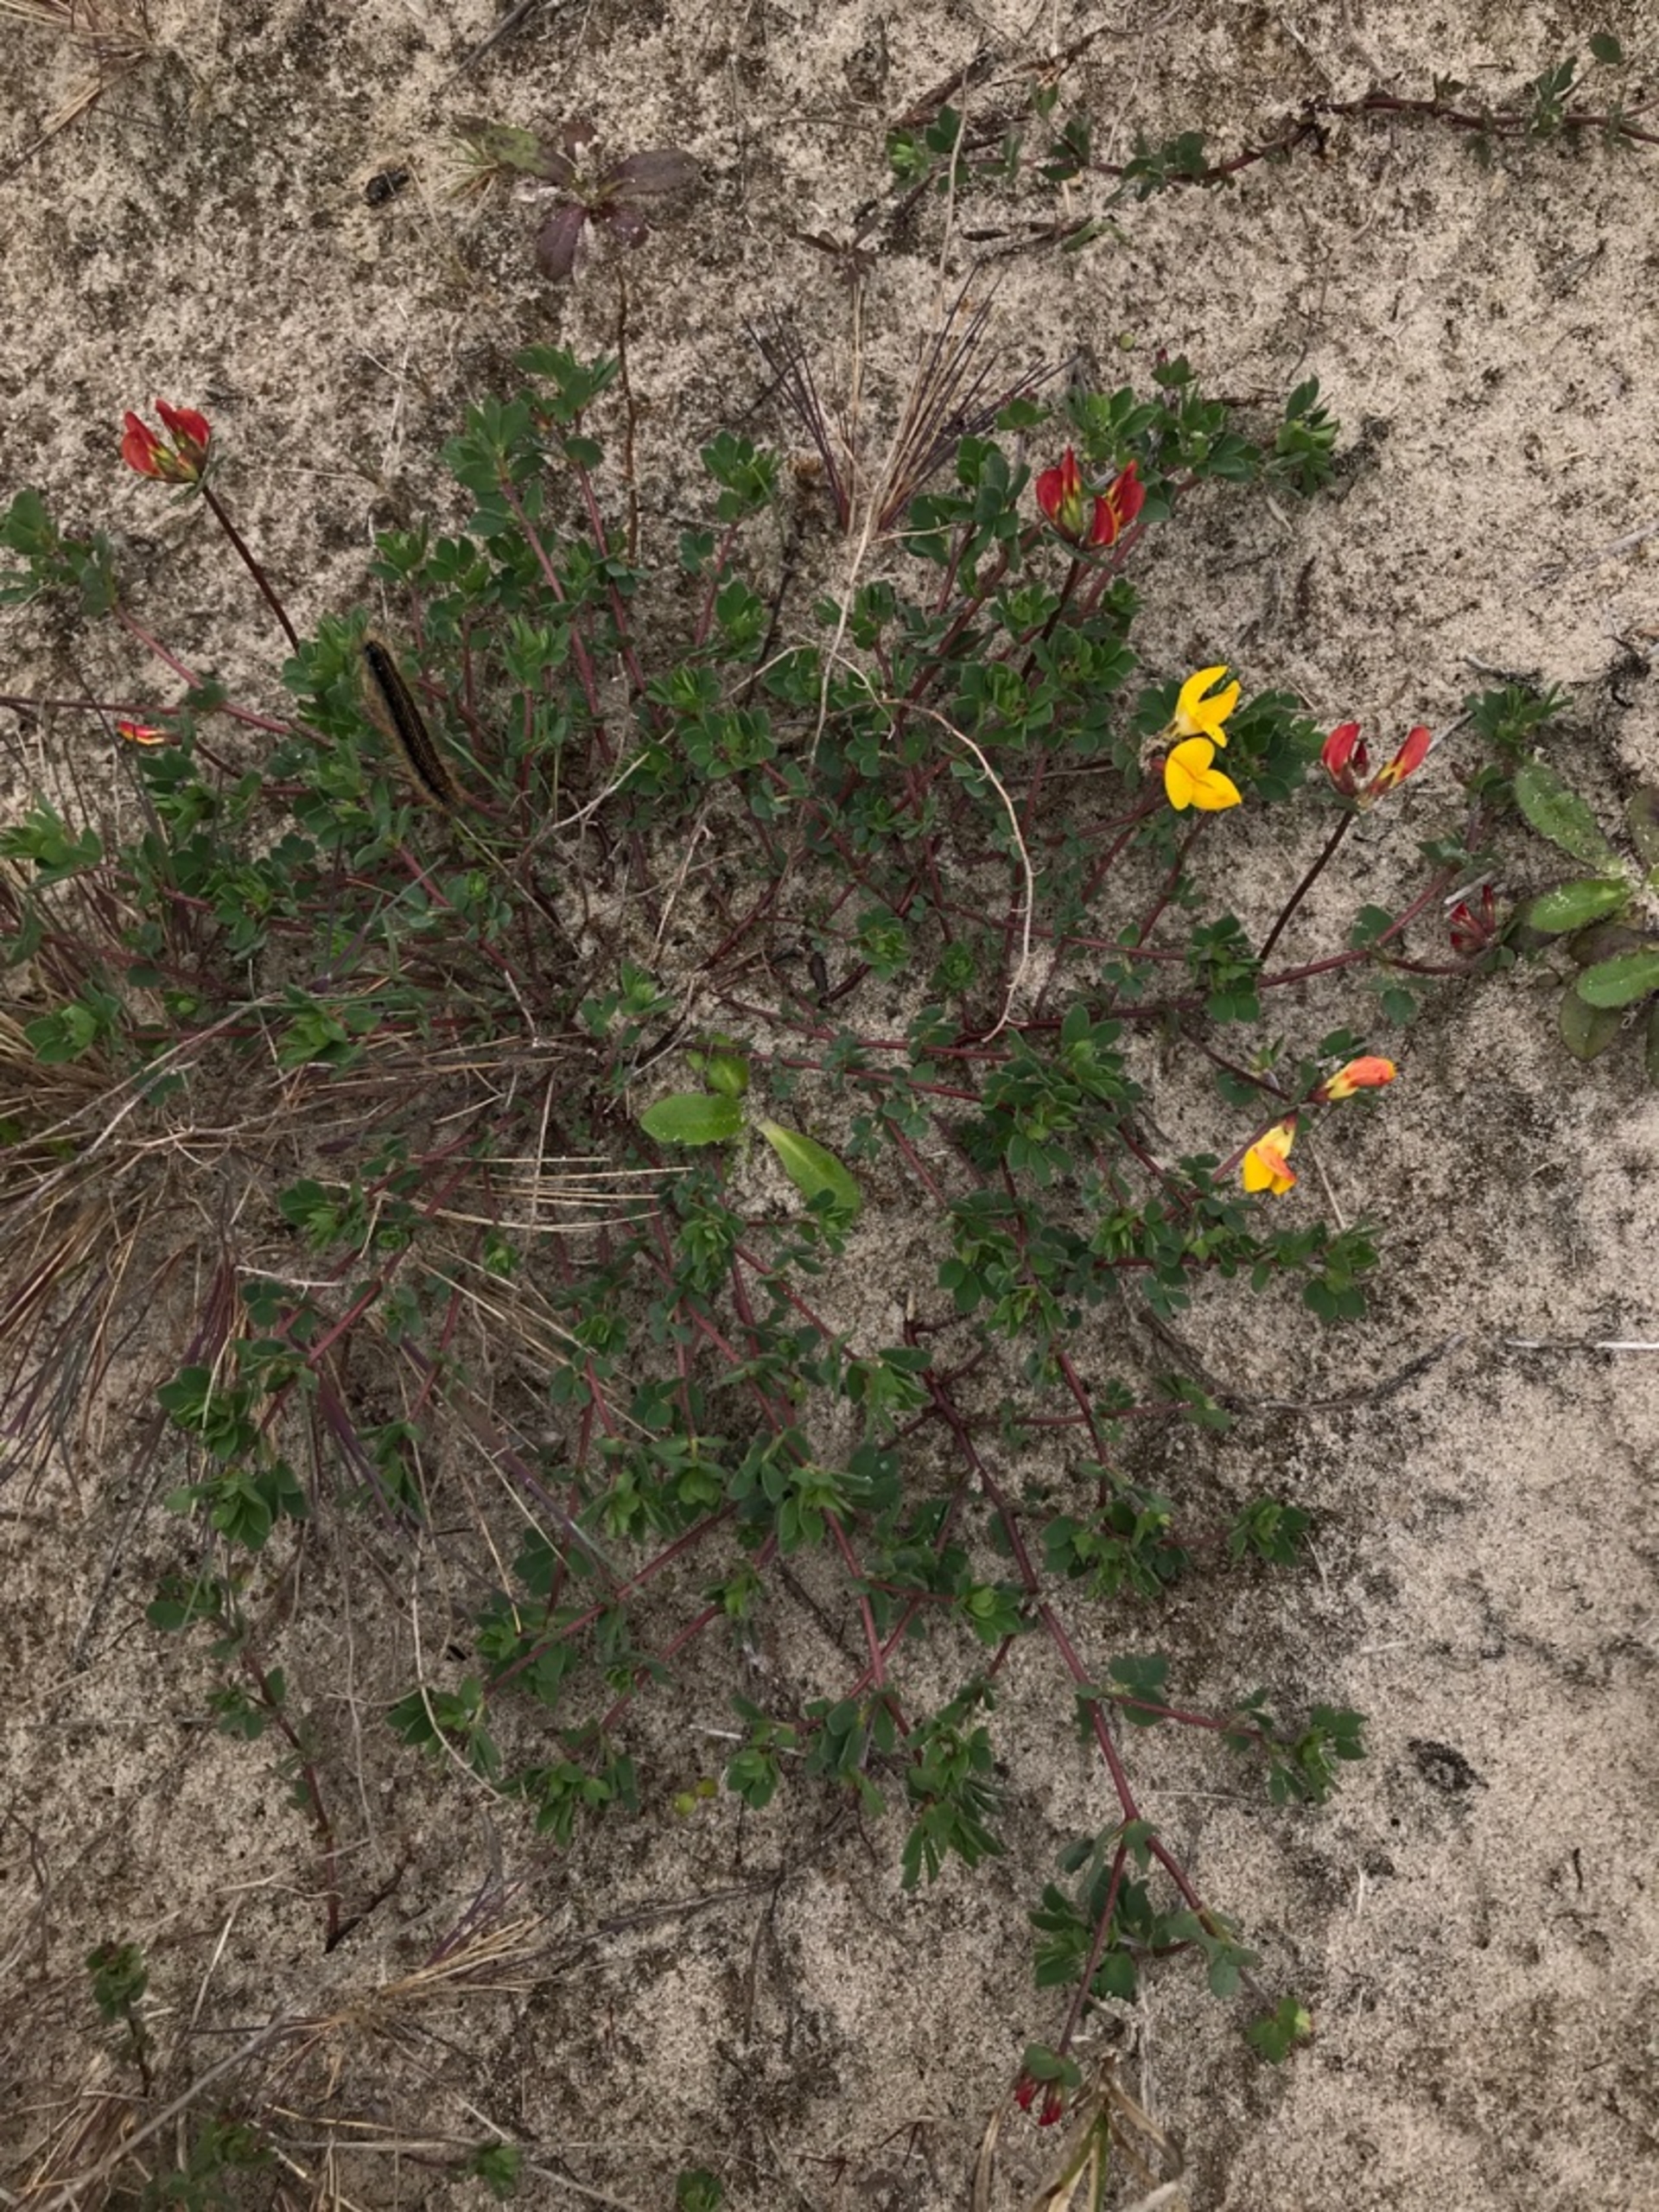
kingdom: Plantae
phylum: Tracheophyta
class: Magnoliopsida
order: Fabales
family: Fabaceae
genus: Lotus
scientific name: Lotus corniculatus
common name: Almindelig kællingetand
